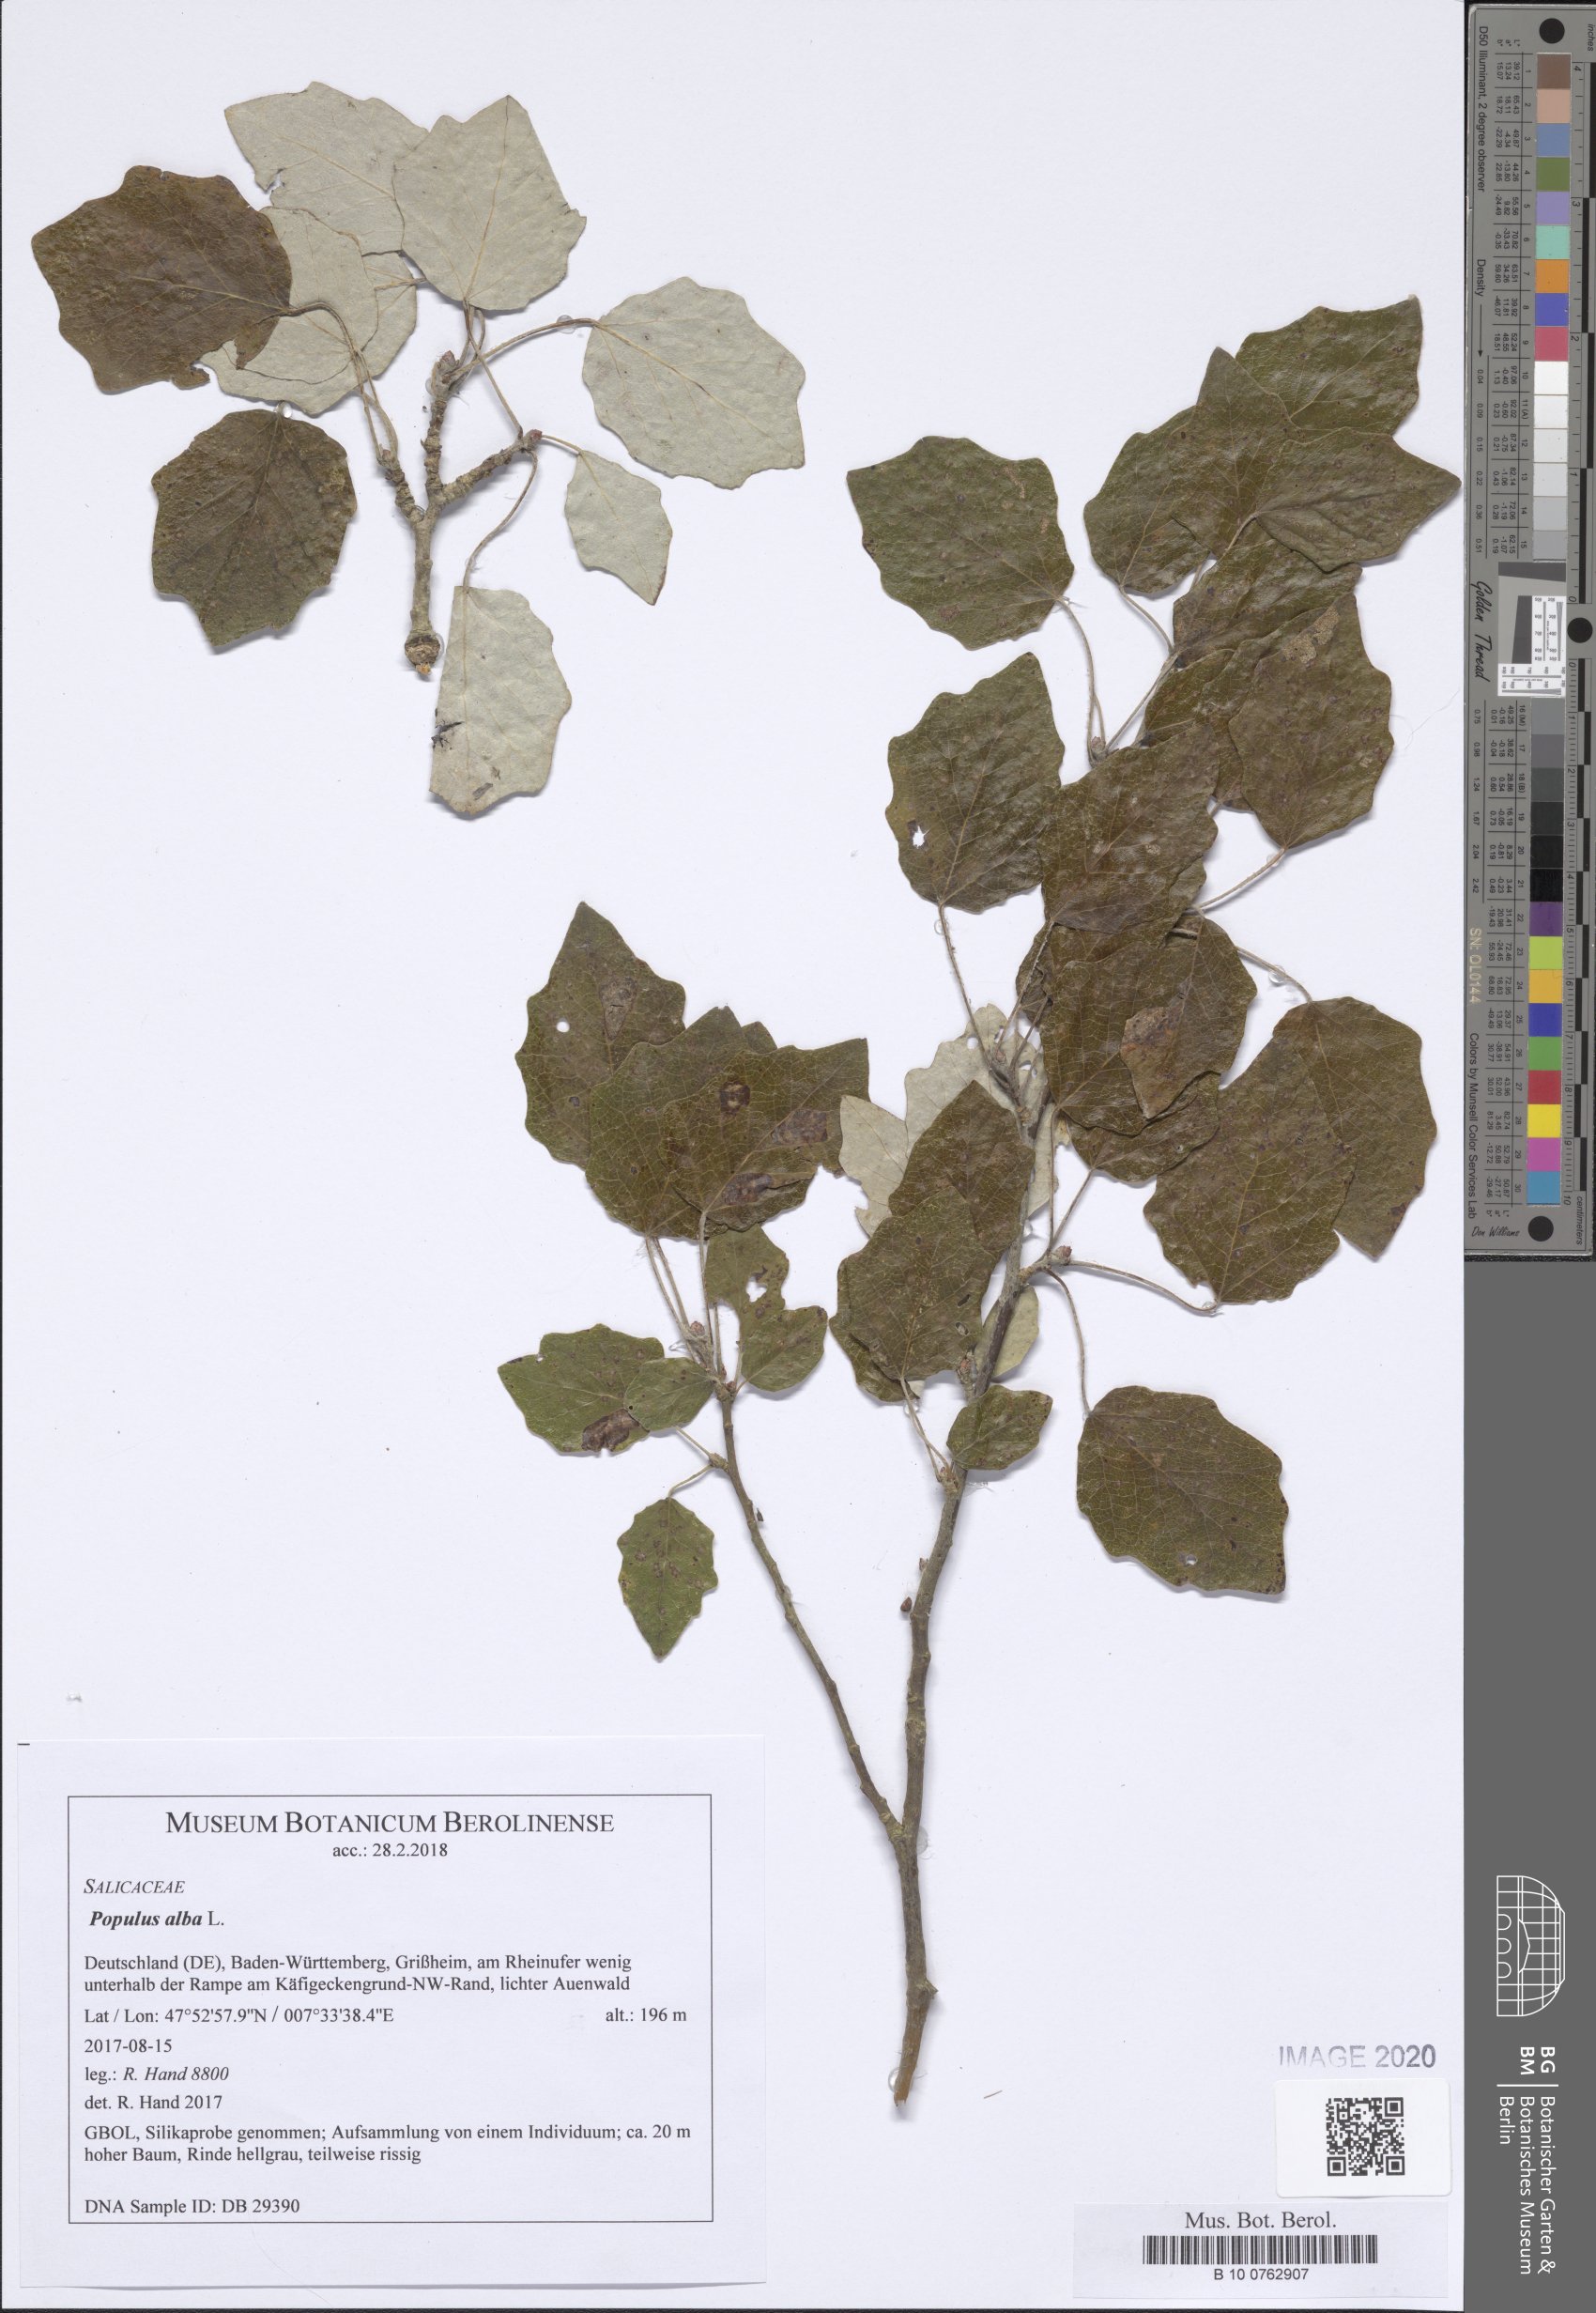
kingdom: Plantae
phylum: Tracheophyta
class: Magnoliopsida
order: Malpighiales
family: Salicaceae
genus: Populus
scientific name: Populus alba
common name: White poplar
